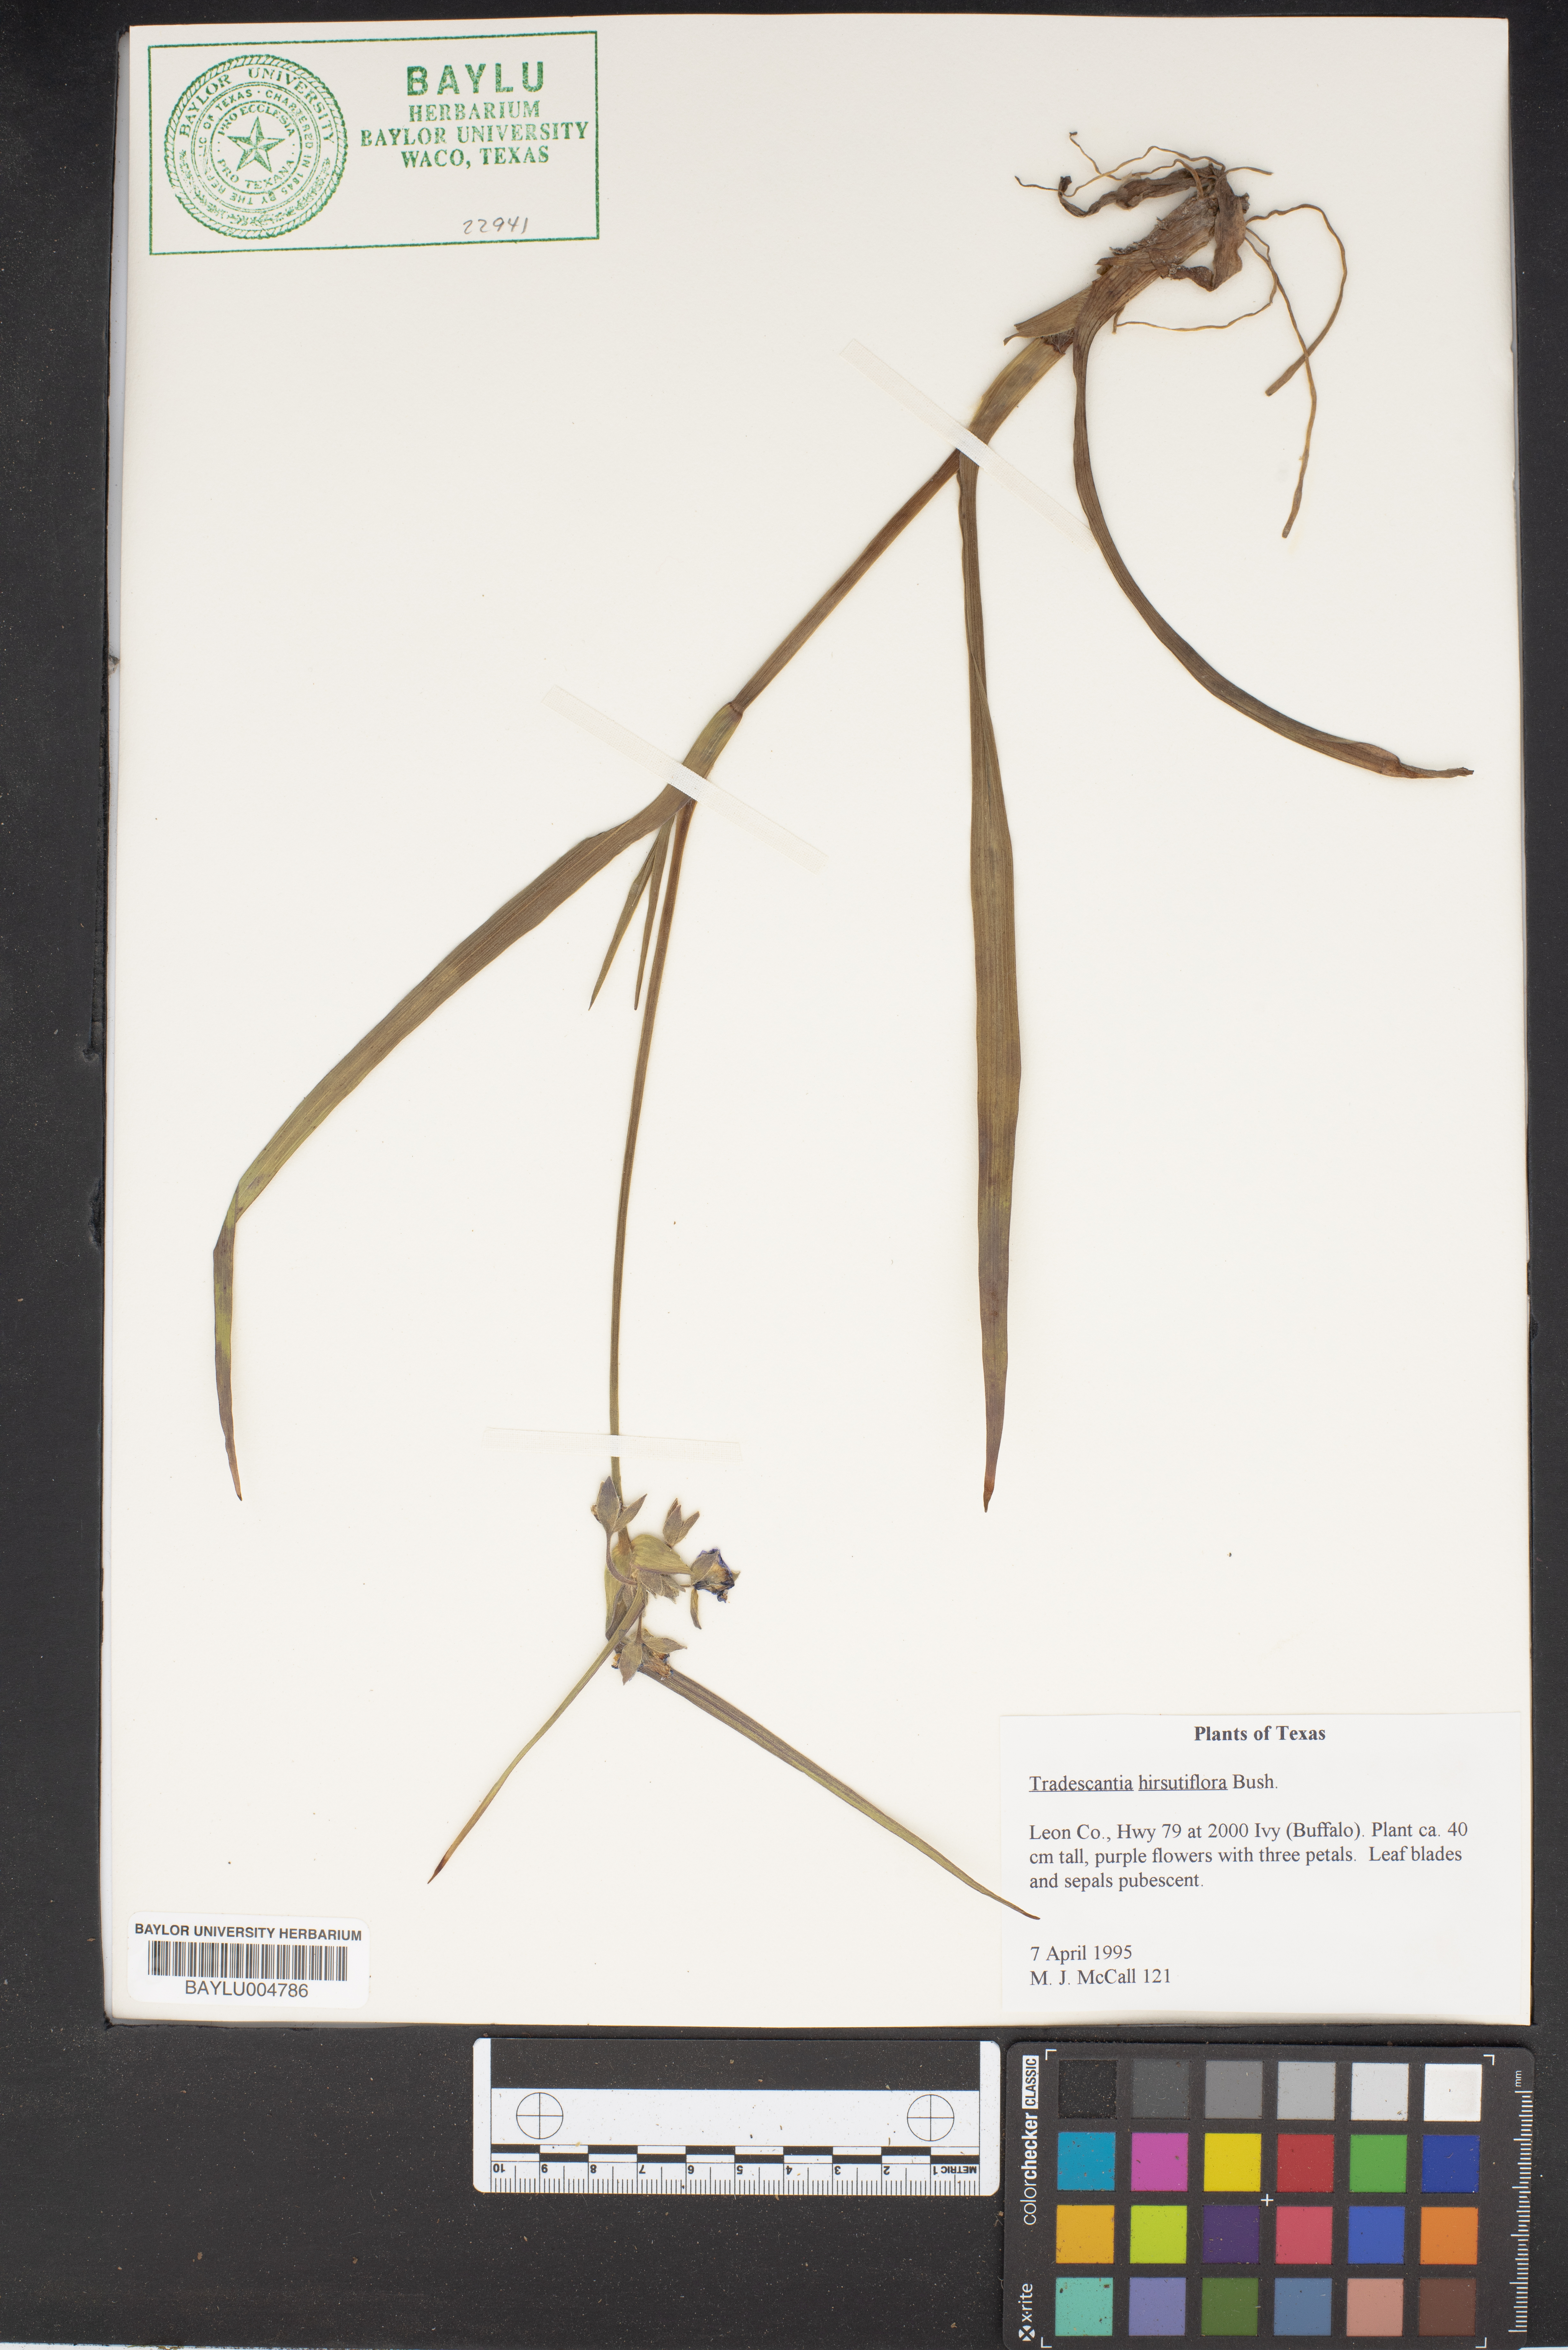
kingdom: Plantae
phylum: Tracheophyta
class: Liliopsida
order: Commelinales
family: Commelinaceae
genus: Tradescantia
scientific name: Tradescantia hirsutiflora
